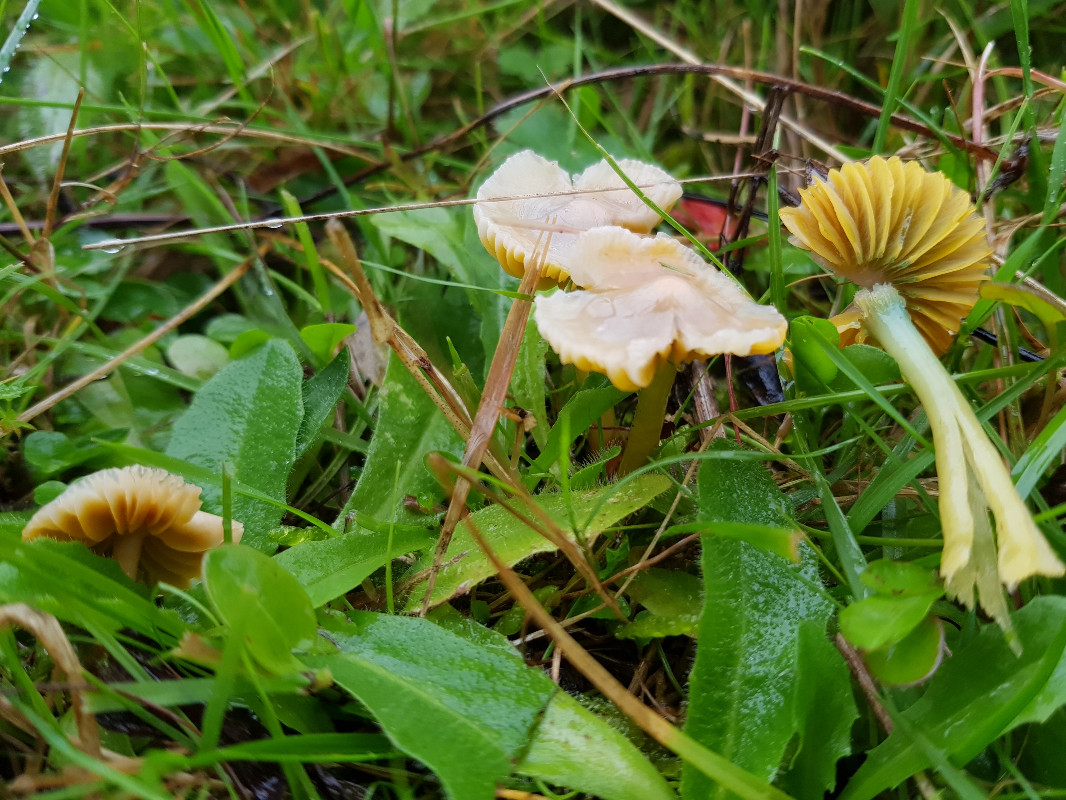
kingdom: Fungi
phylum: Basidiomycota
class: Agaricomycetes
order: Agaricales
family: Hygrophoraceae
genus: Gliophorus
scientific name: Gliophorus psittacinus
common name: papegøje-vokshat
